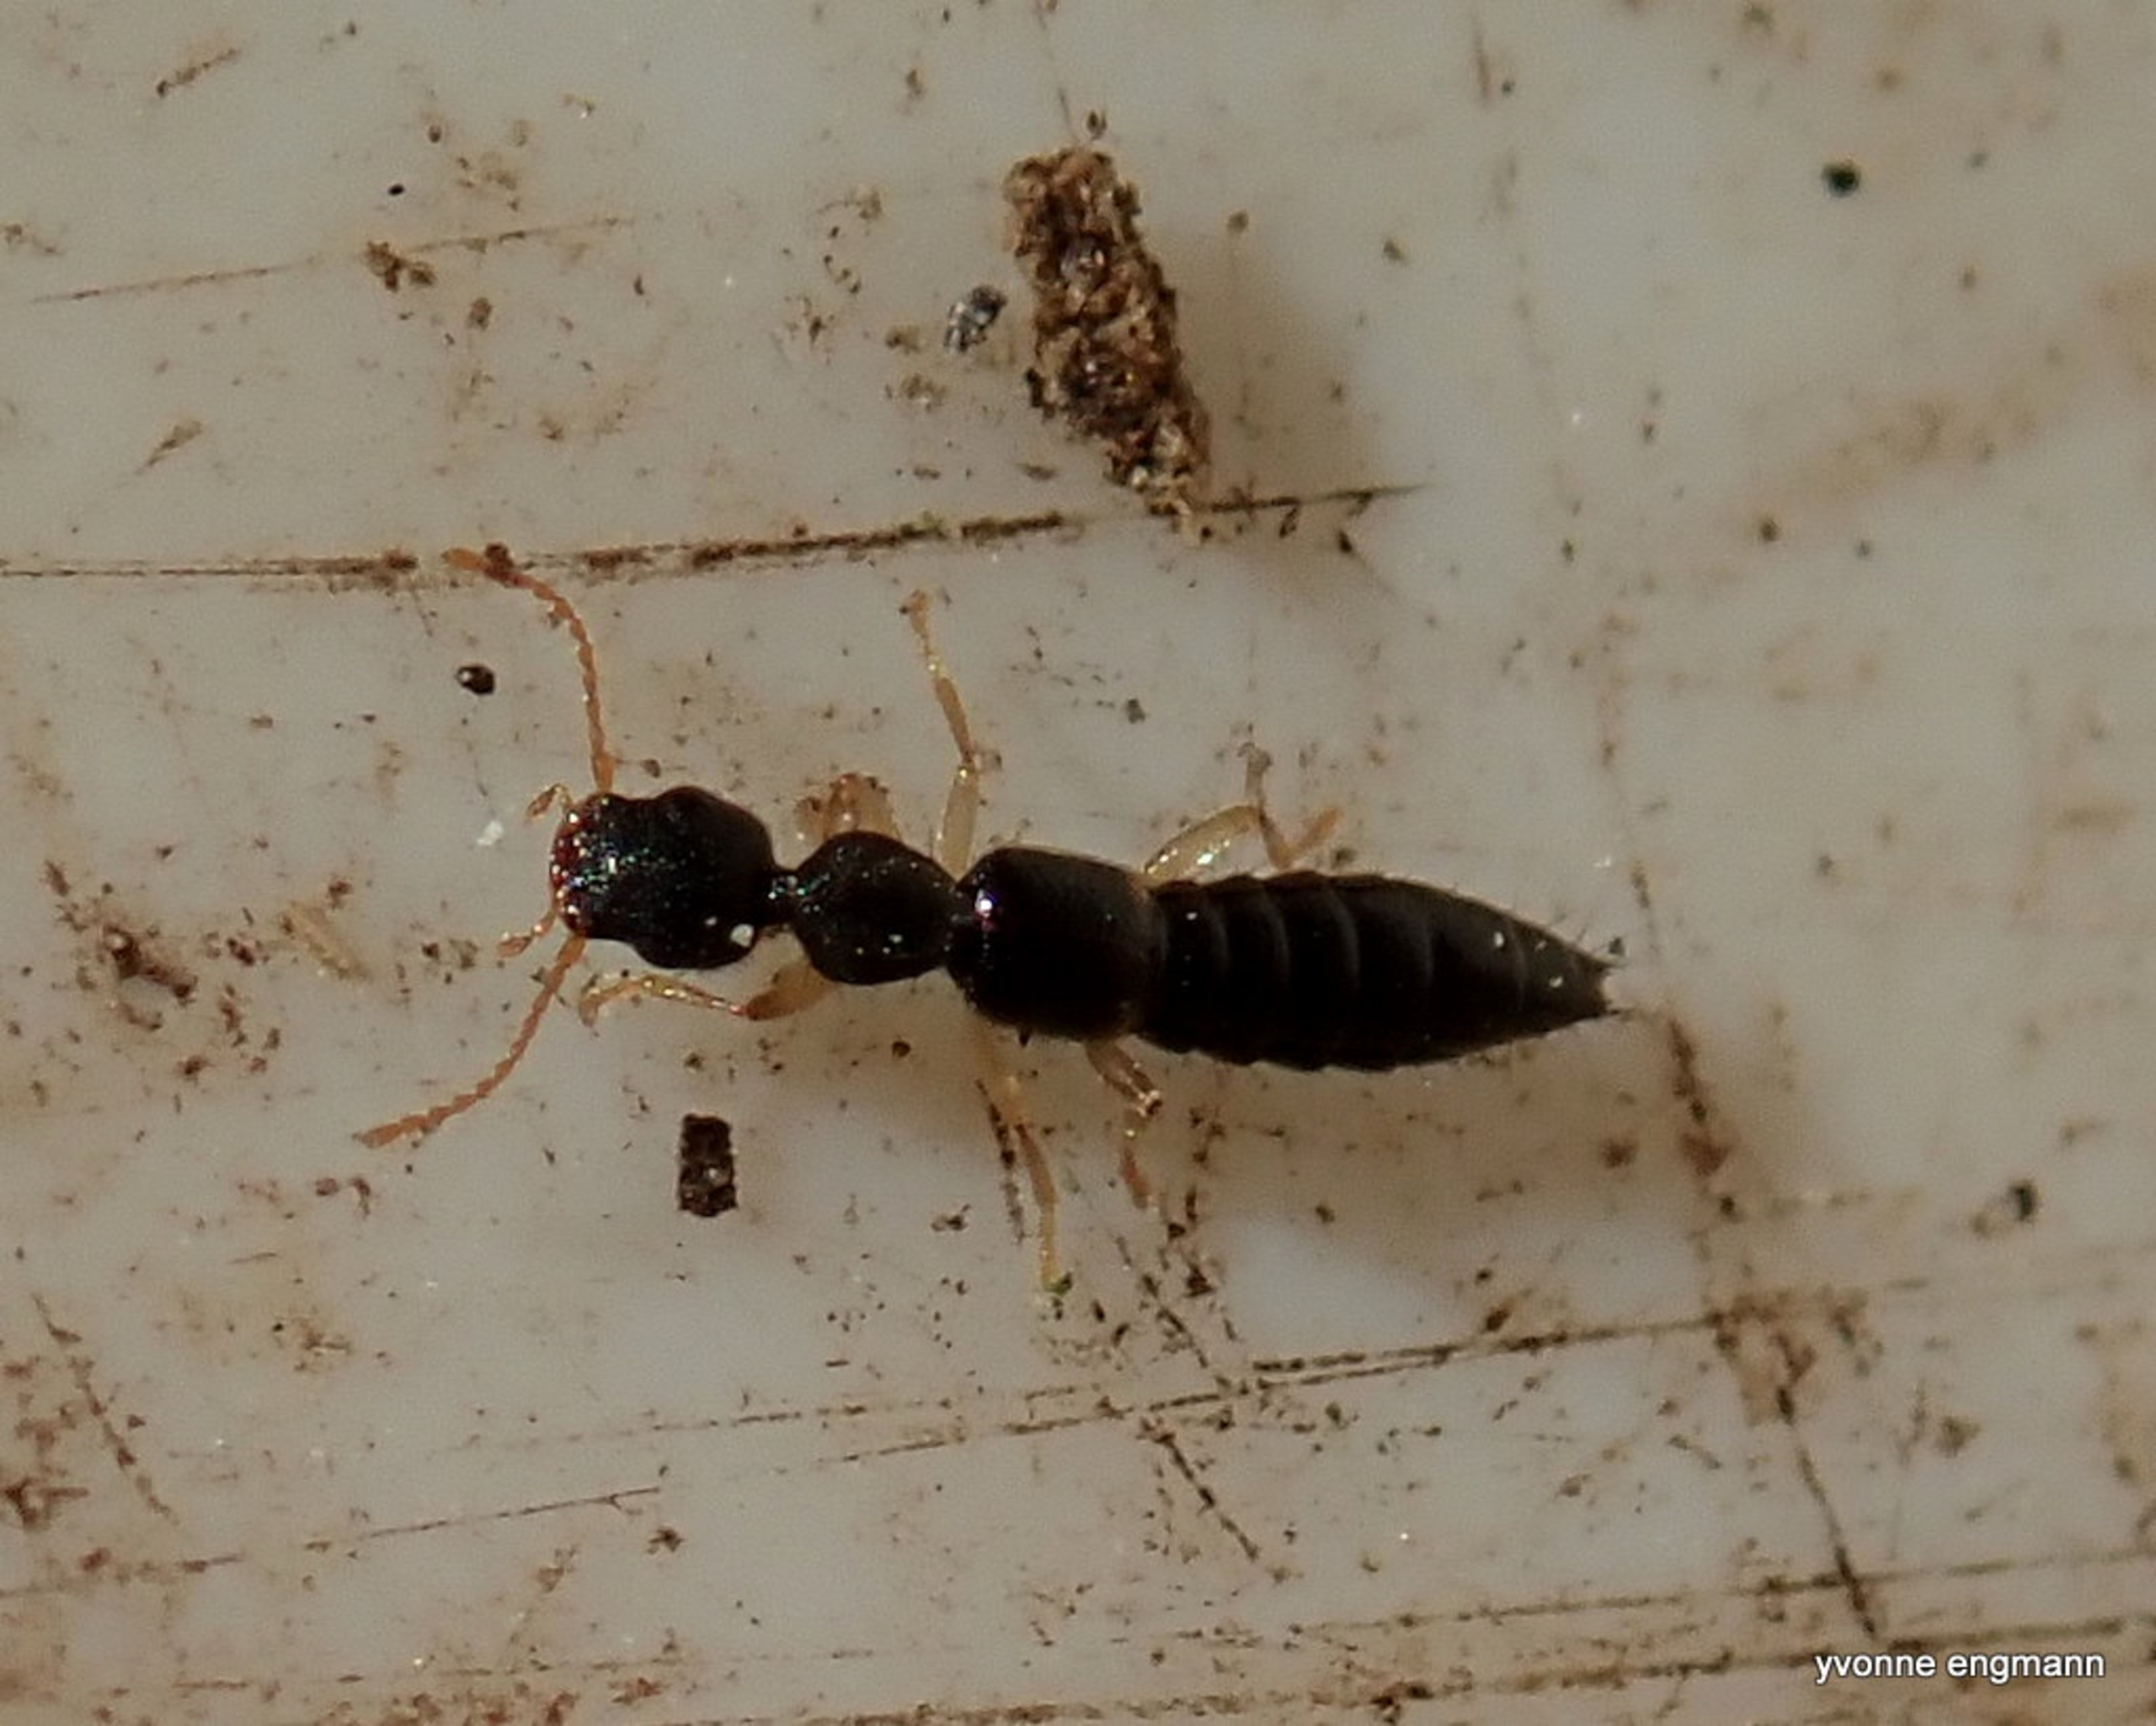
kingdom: Animalia
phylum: Arthropoda
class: Insecta
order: Coleoptera
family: Staphylinidae
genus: Astenus
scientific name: Astenus
